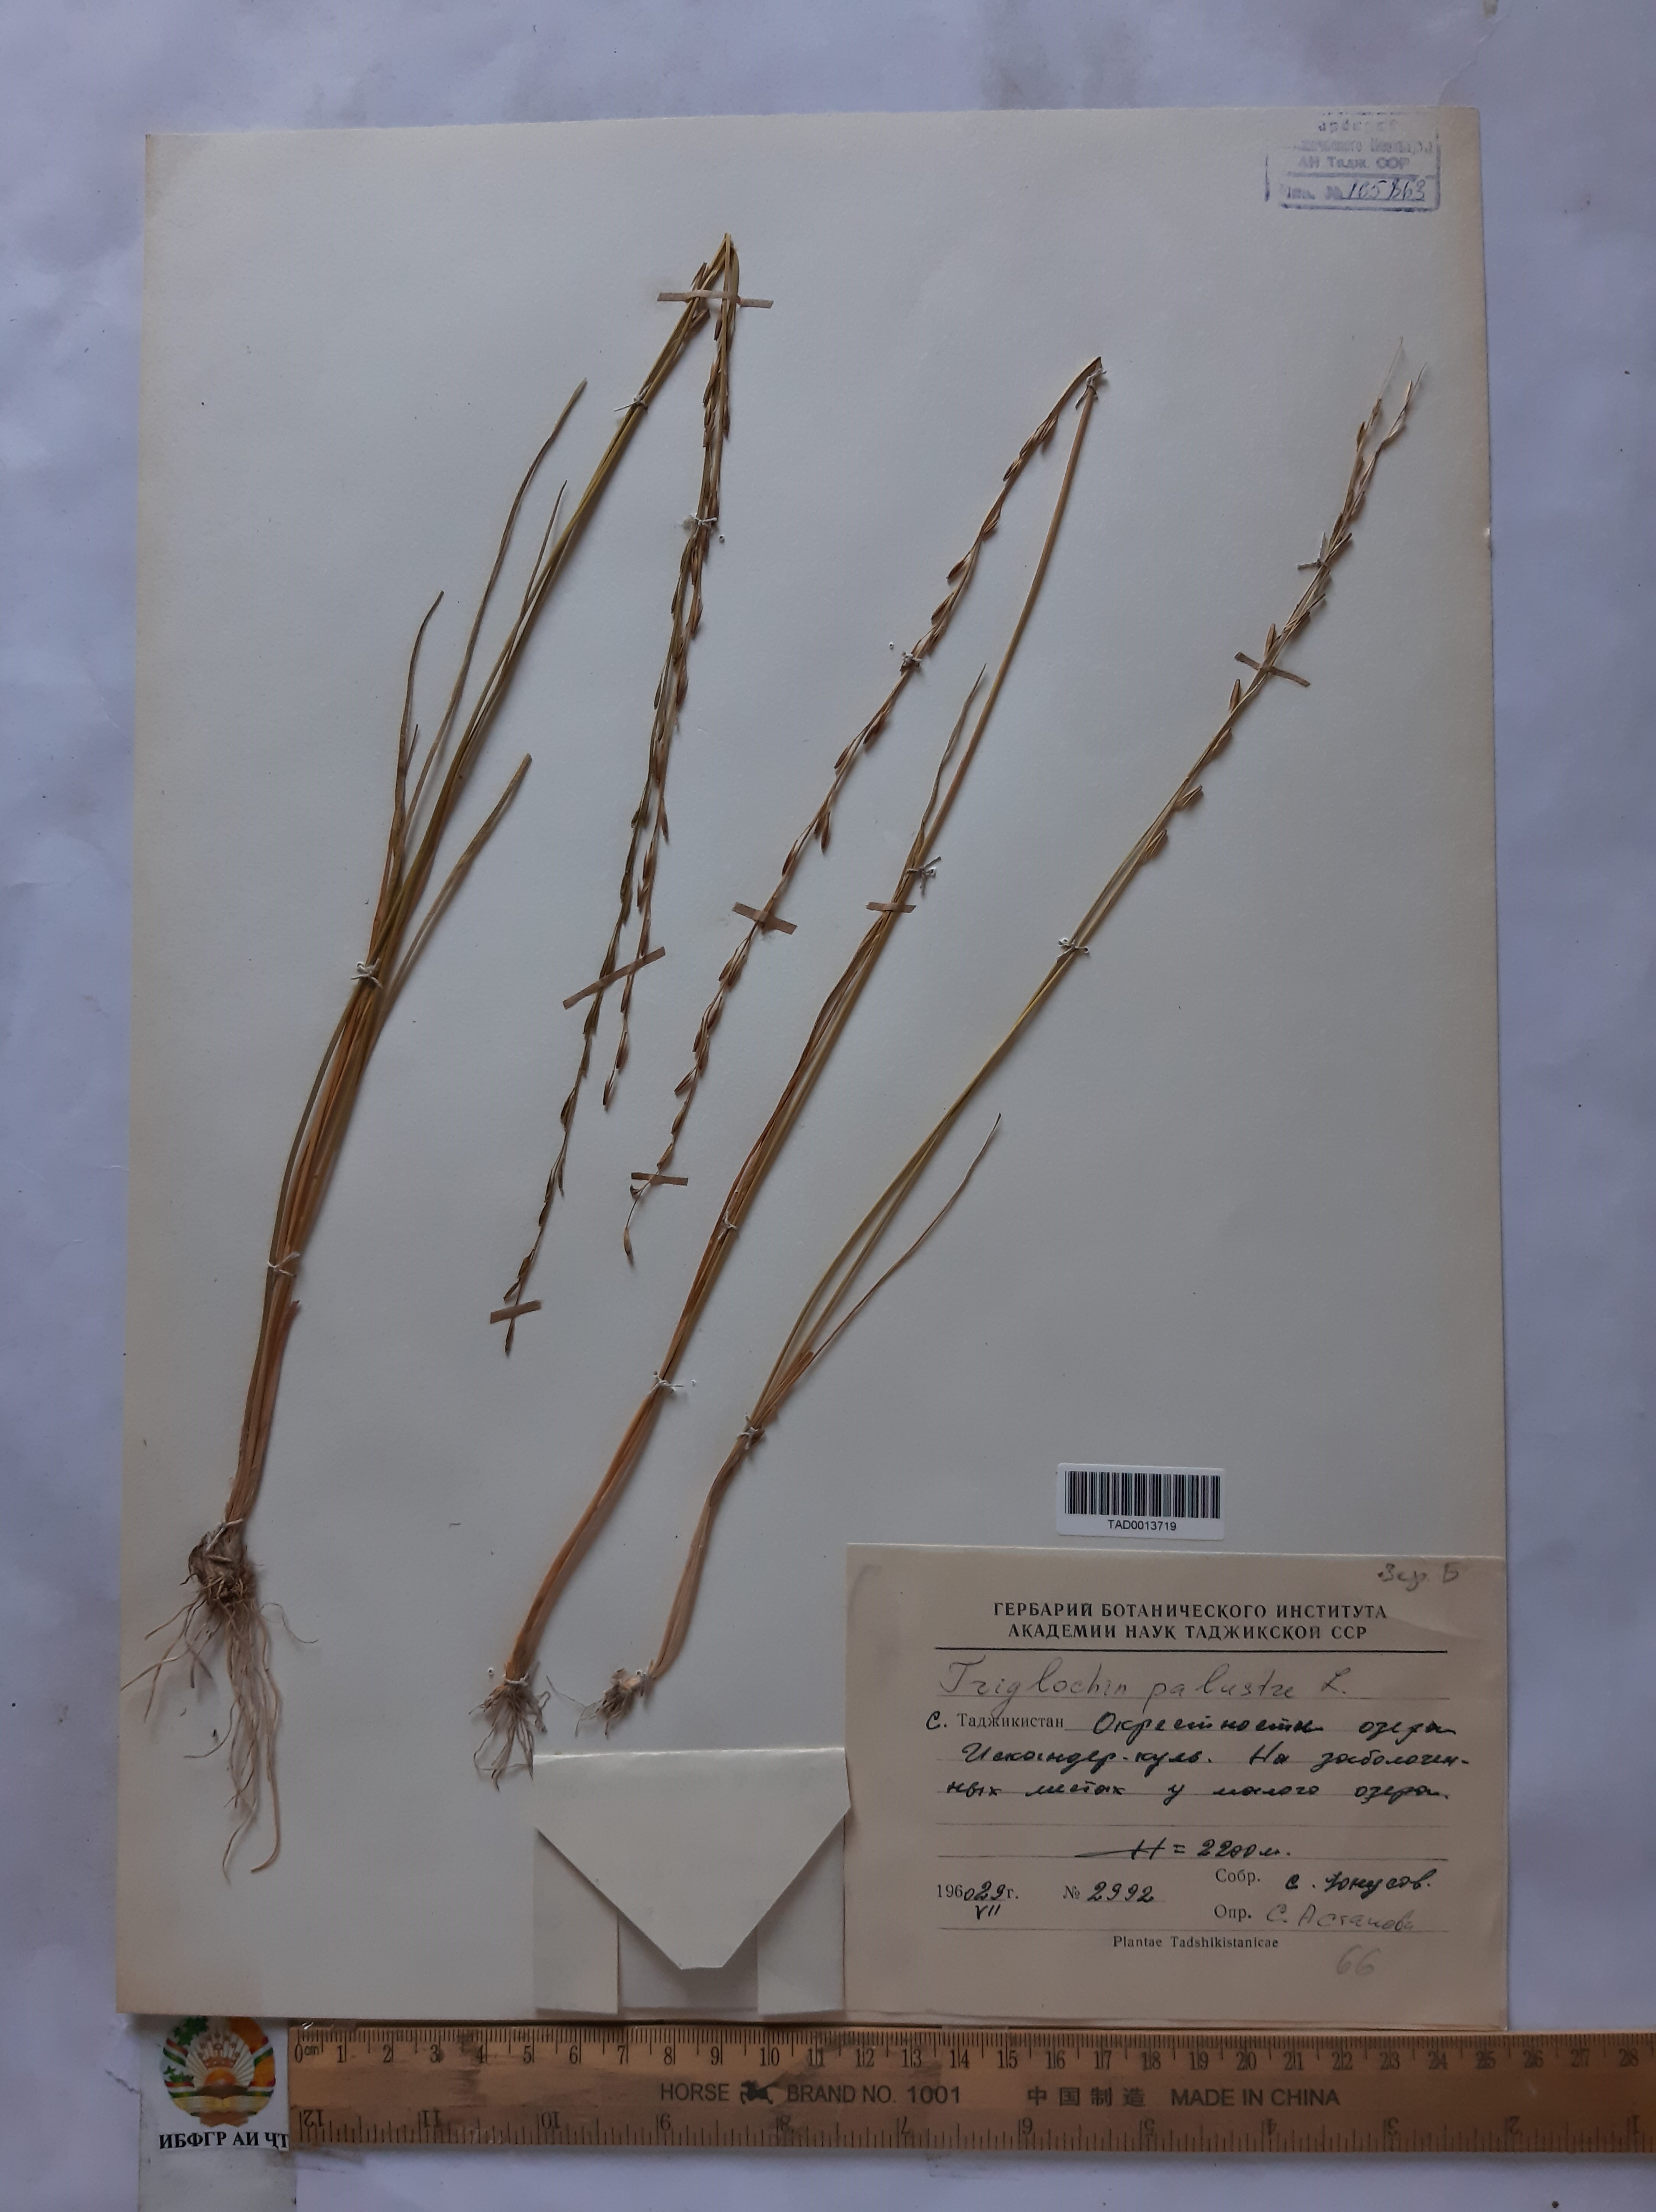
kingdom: Plantae
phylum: Tracheophyta
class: Liliopsida
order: Alismatales
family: Juncaginaceae
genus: Triglochin
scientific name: Triglochin palustris
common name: Marsh arrowgrass
